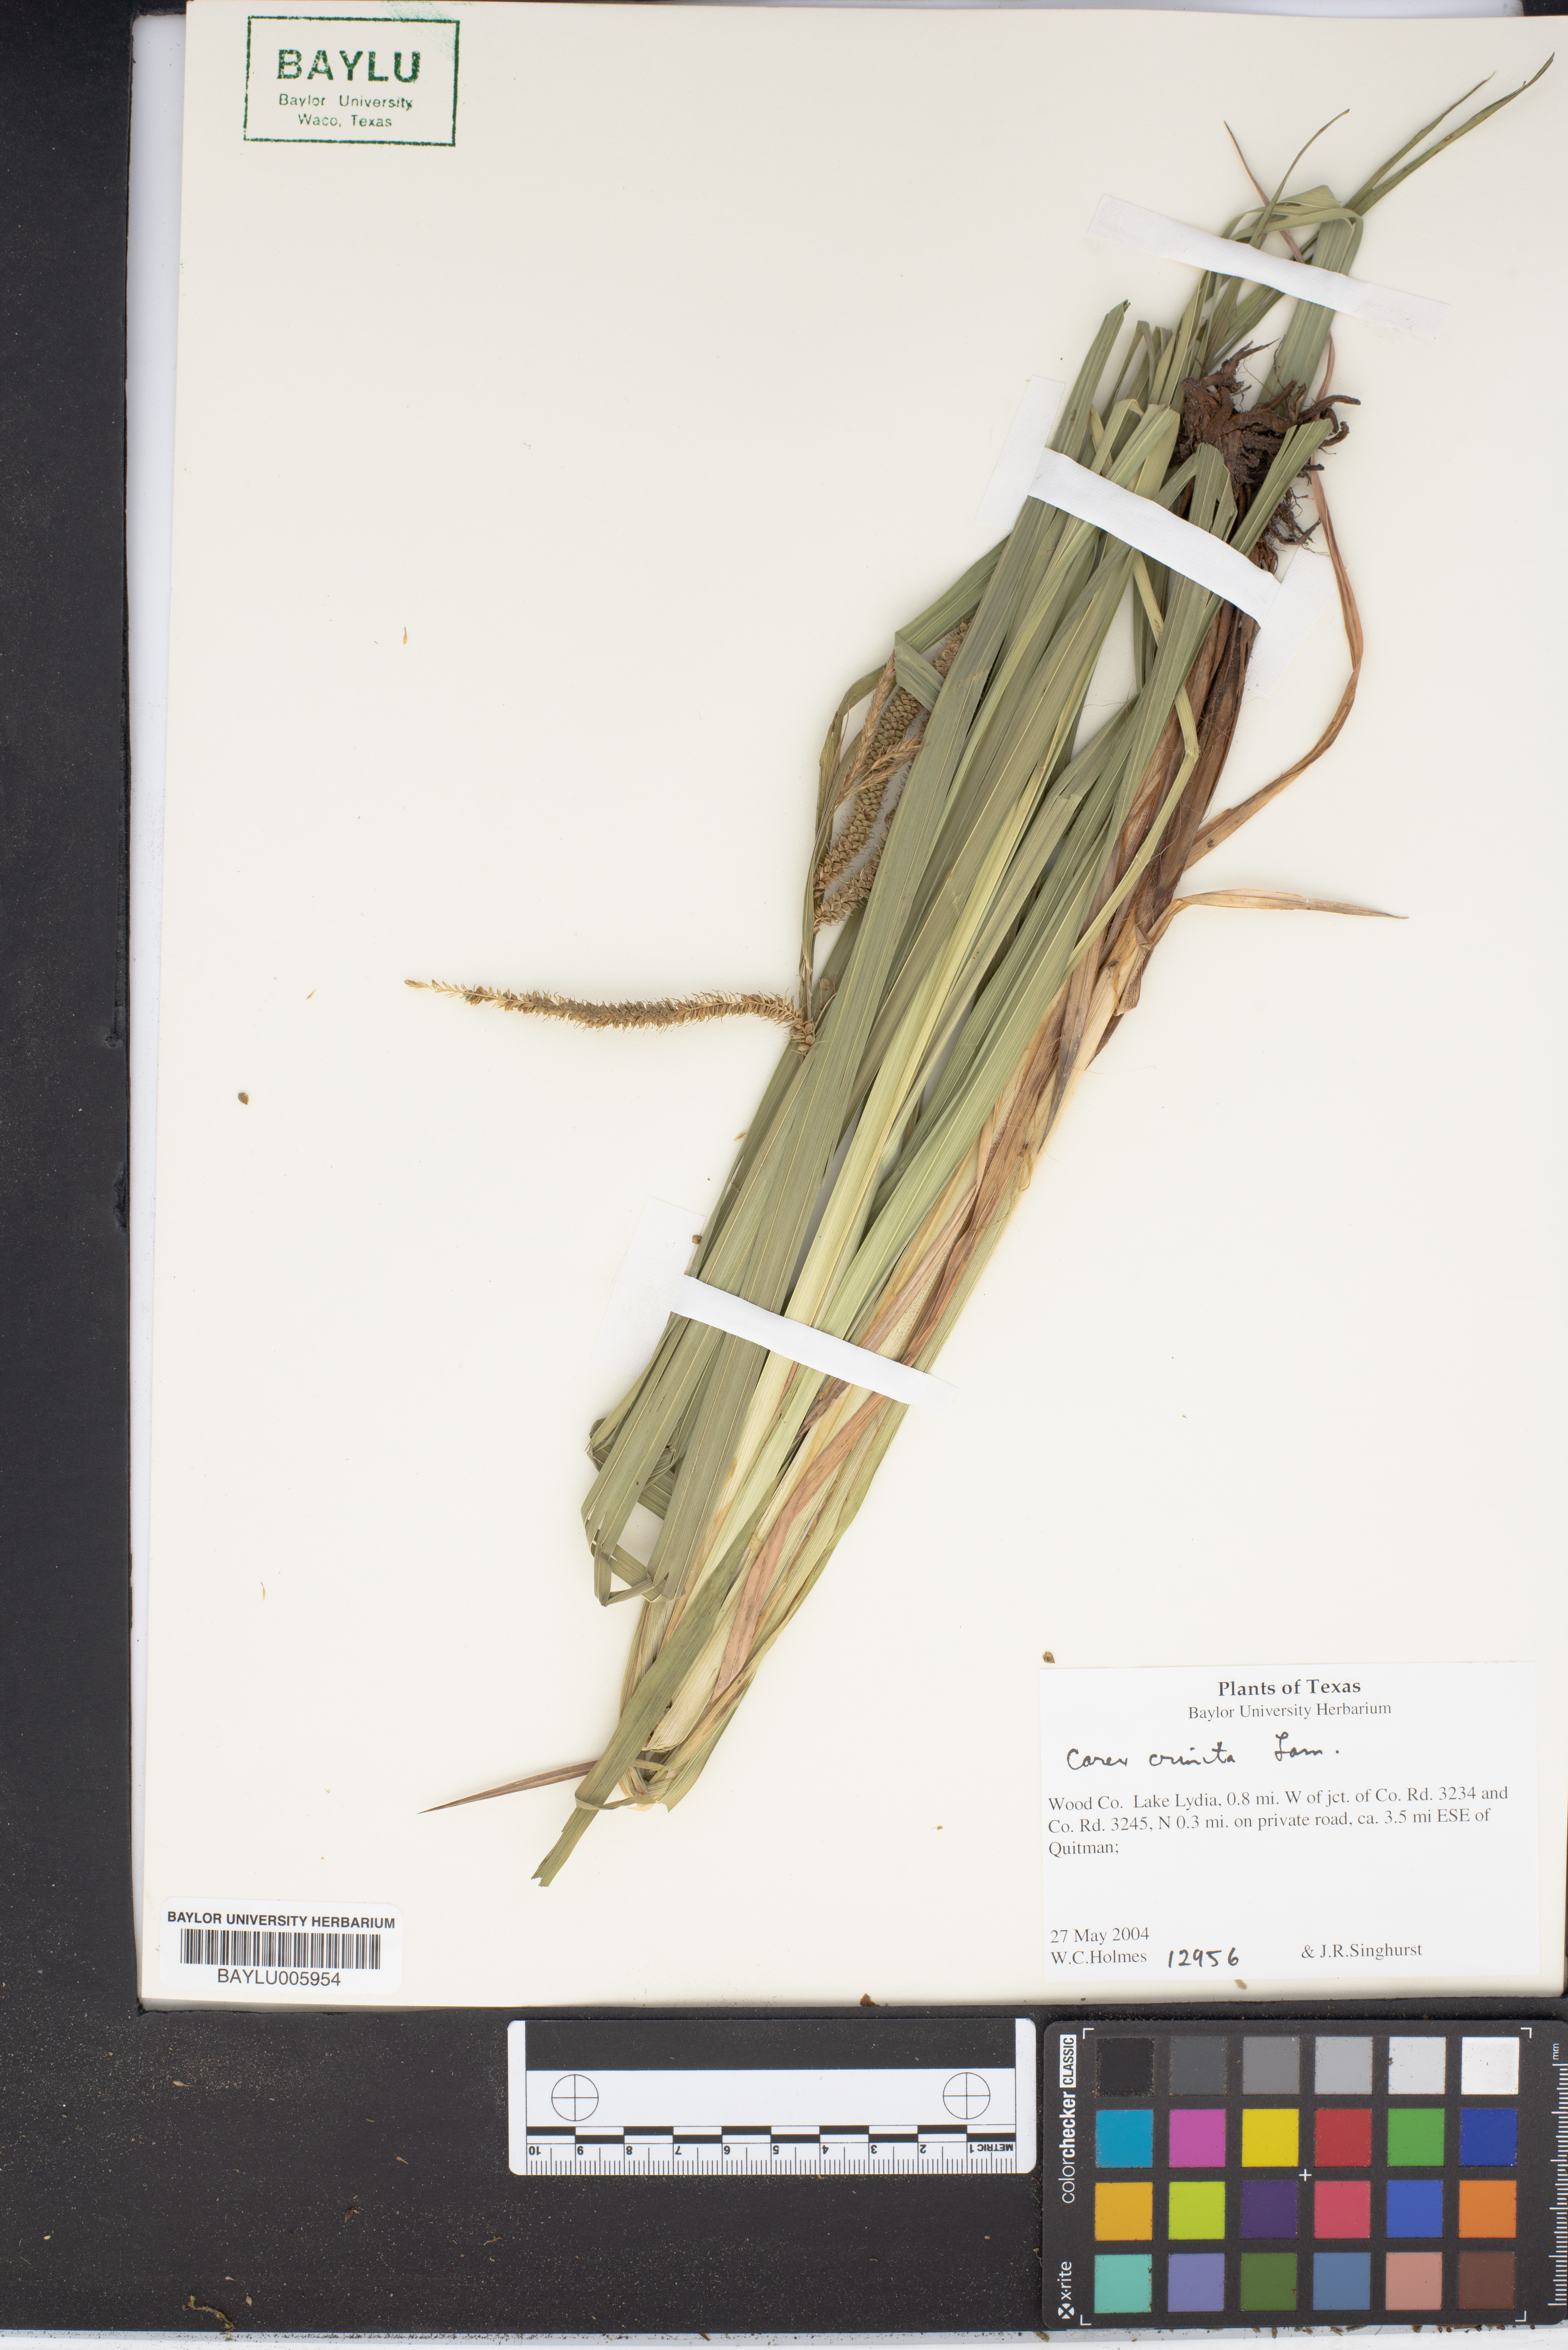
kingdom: Plantae
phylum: Tracheophyta
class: Liliopsida
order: Poales
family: Cyperaceae
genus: Carex
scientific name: Carex crinita
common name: Fringed sedge
